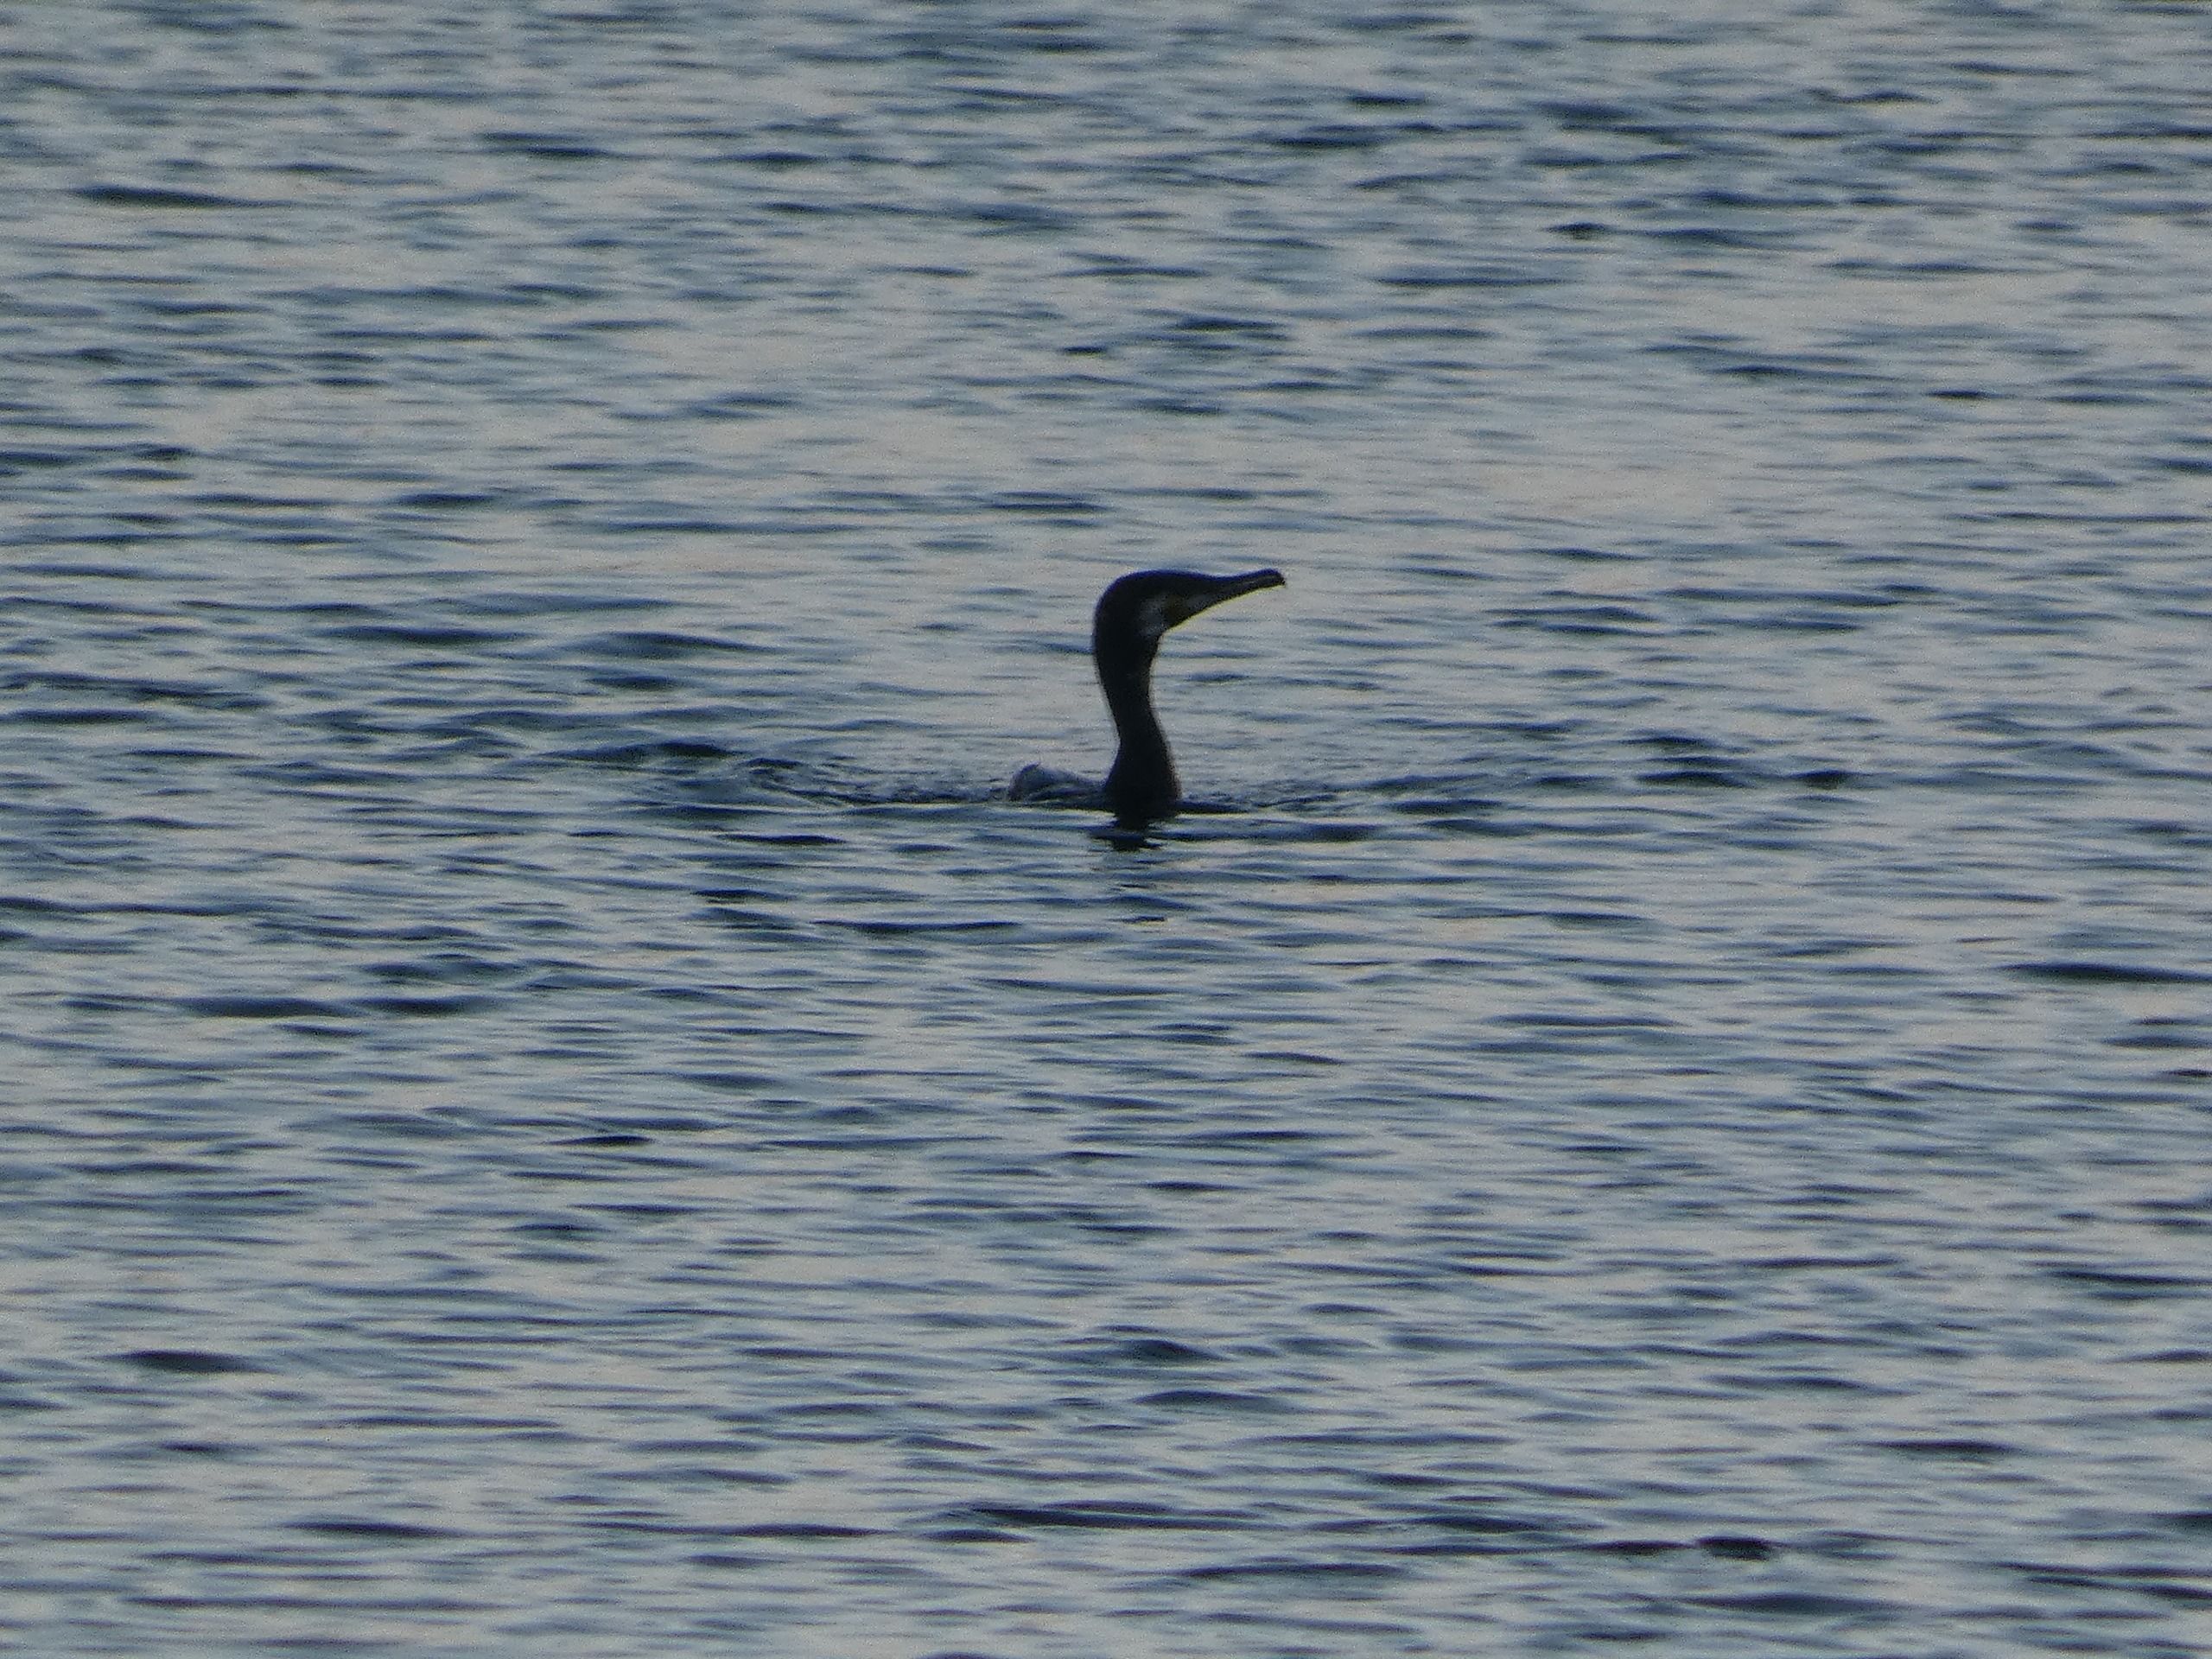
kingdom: Animalia
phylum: Chordata
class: Aves
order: Suliformes
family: Phalacrocoracidae
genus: Phalacrocorax
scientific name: Phalacrocorax carbo
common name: Skarv
